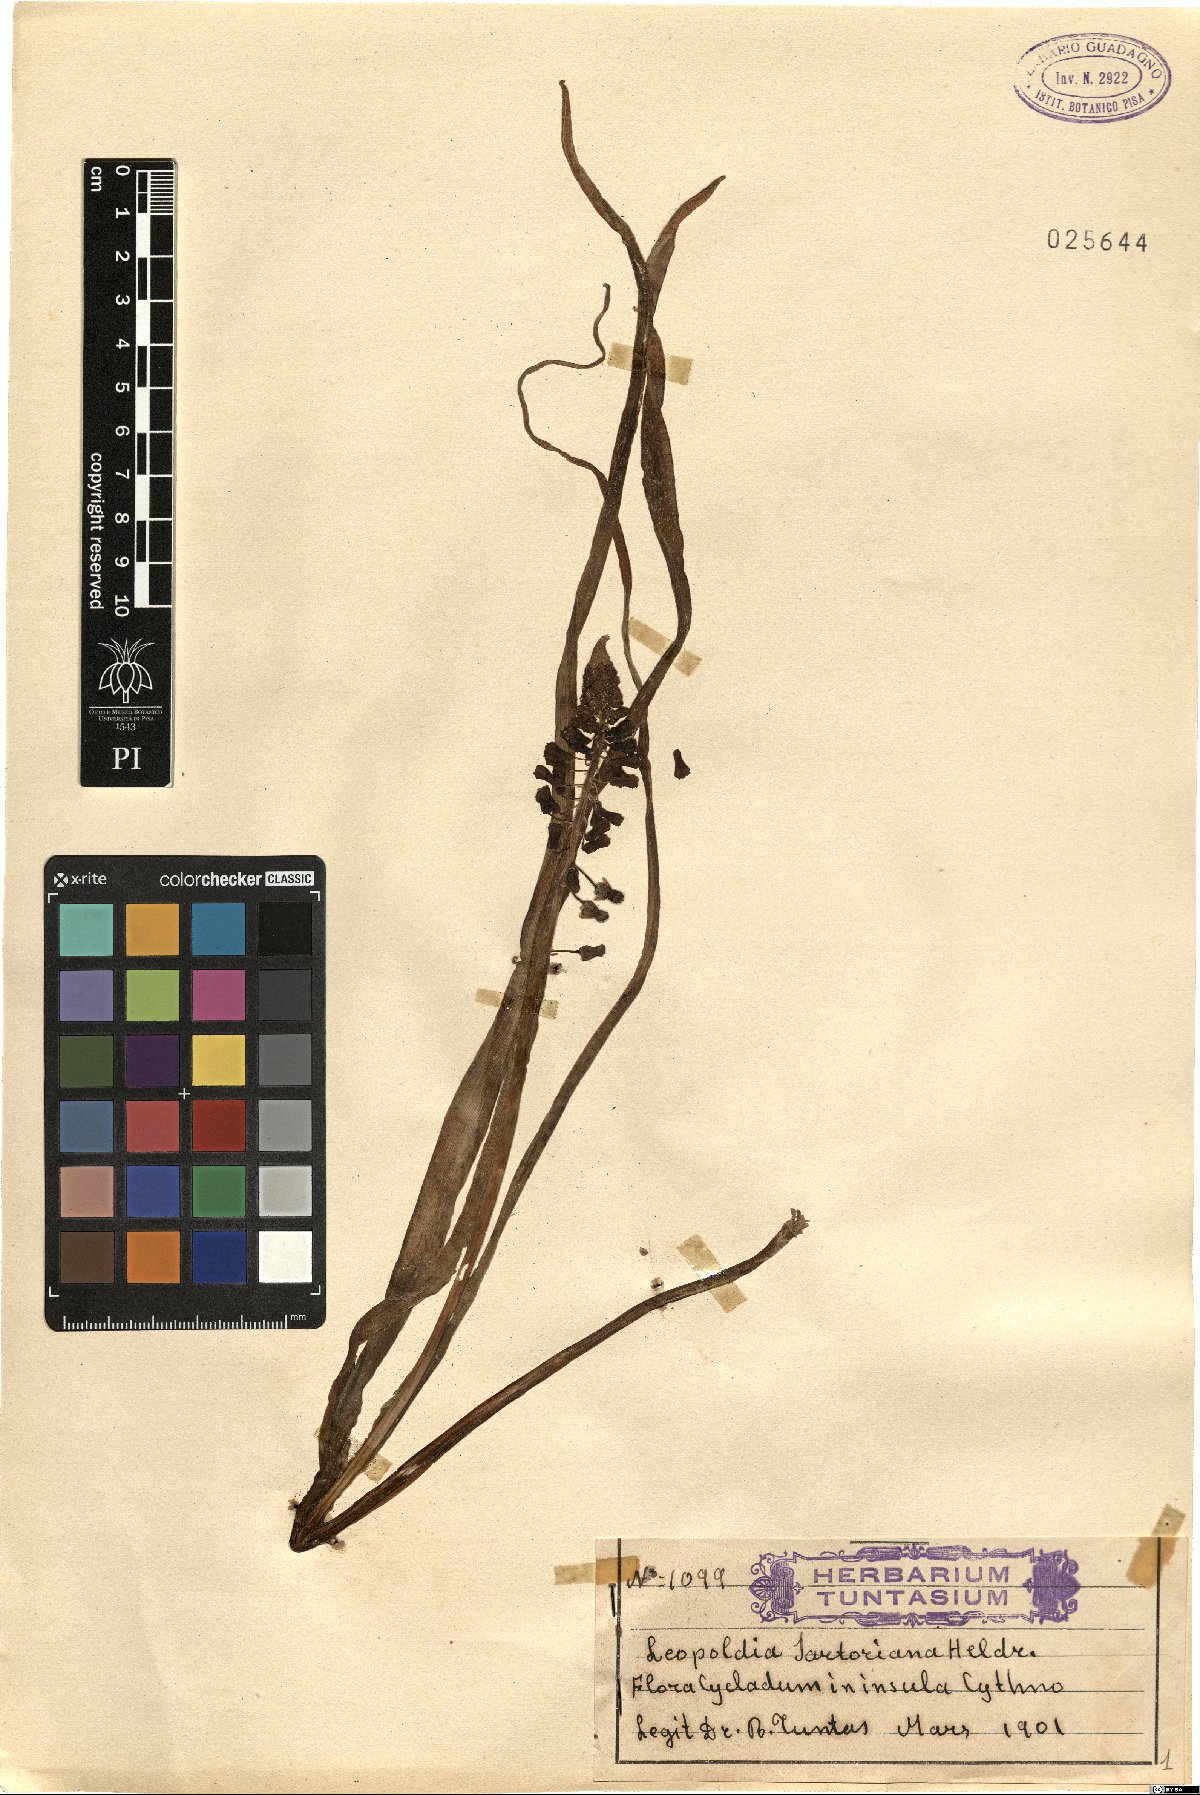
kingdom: Plantae
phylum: Tracheophyta
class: Liliopsida
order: Asparagales
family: Asparagaceae
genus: Muscari
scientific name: Muscari comosum
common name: Tassel hyacinth
